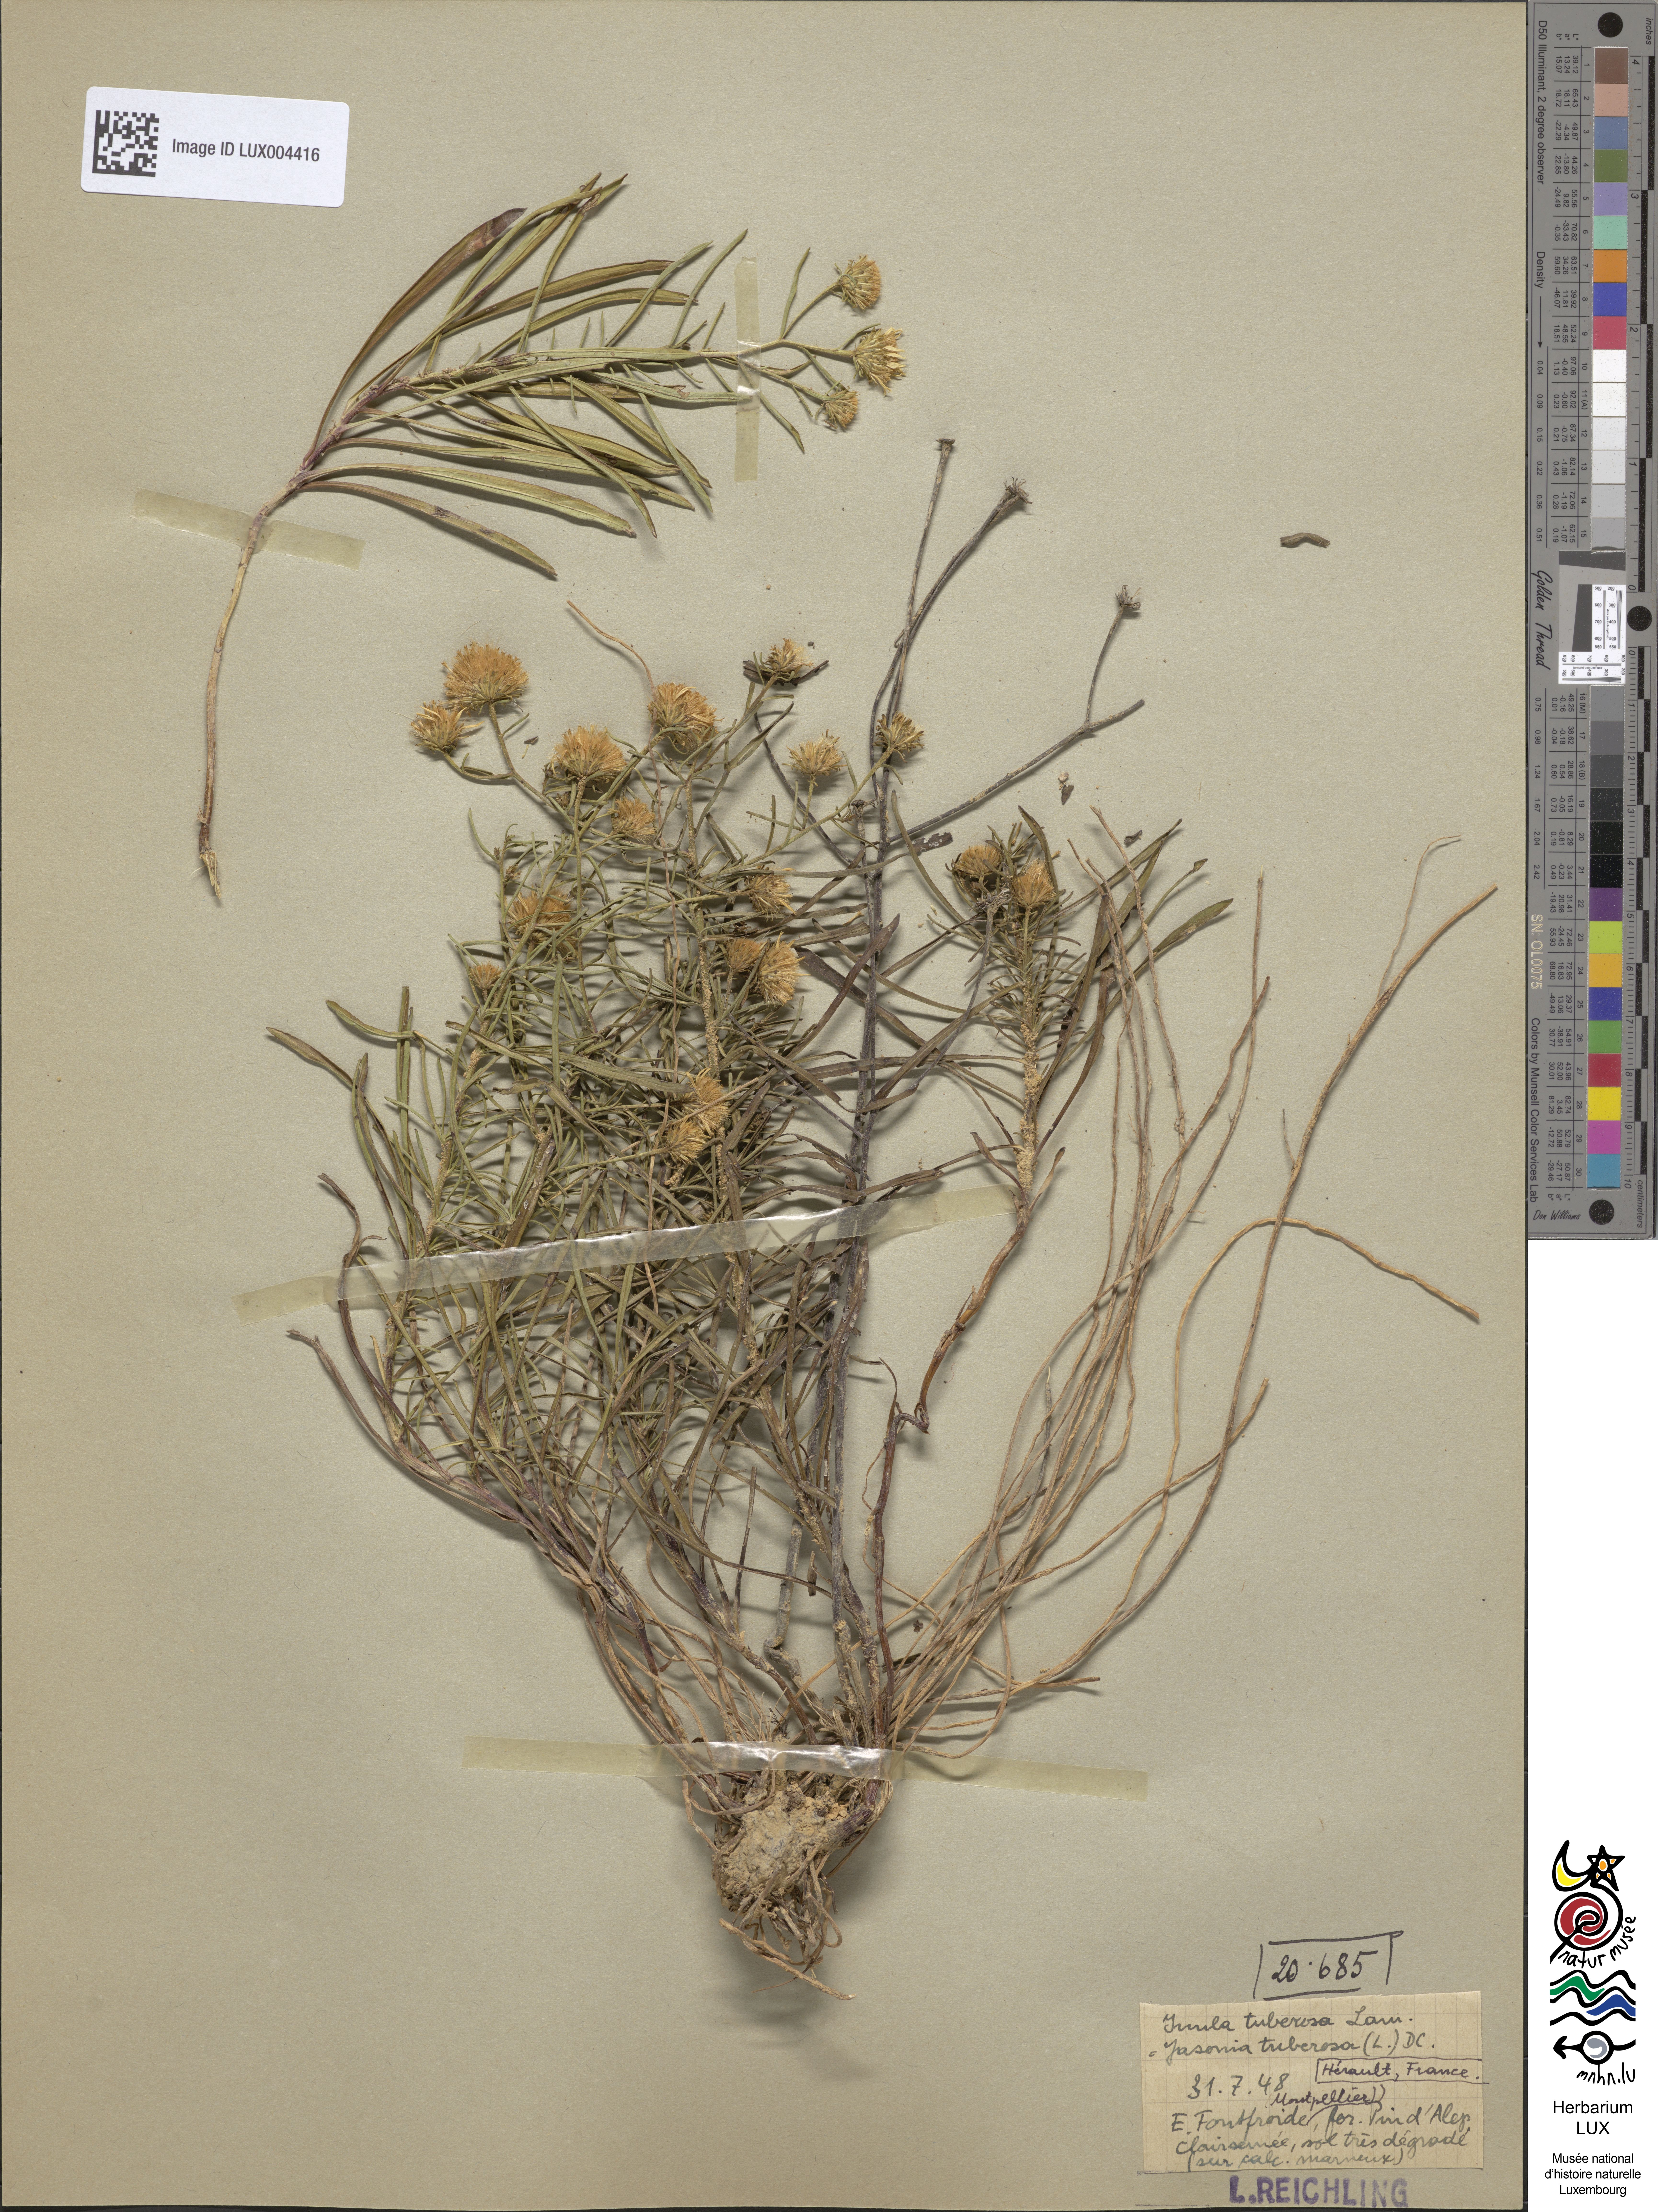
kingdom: Plantae
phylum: Tracheophyta
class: Magnoliopsida
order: Asterales
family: Asteraceae
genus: Jasonia
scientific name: Jasonia tuberosa
